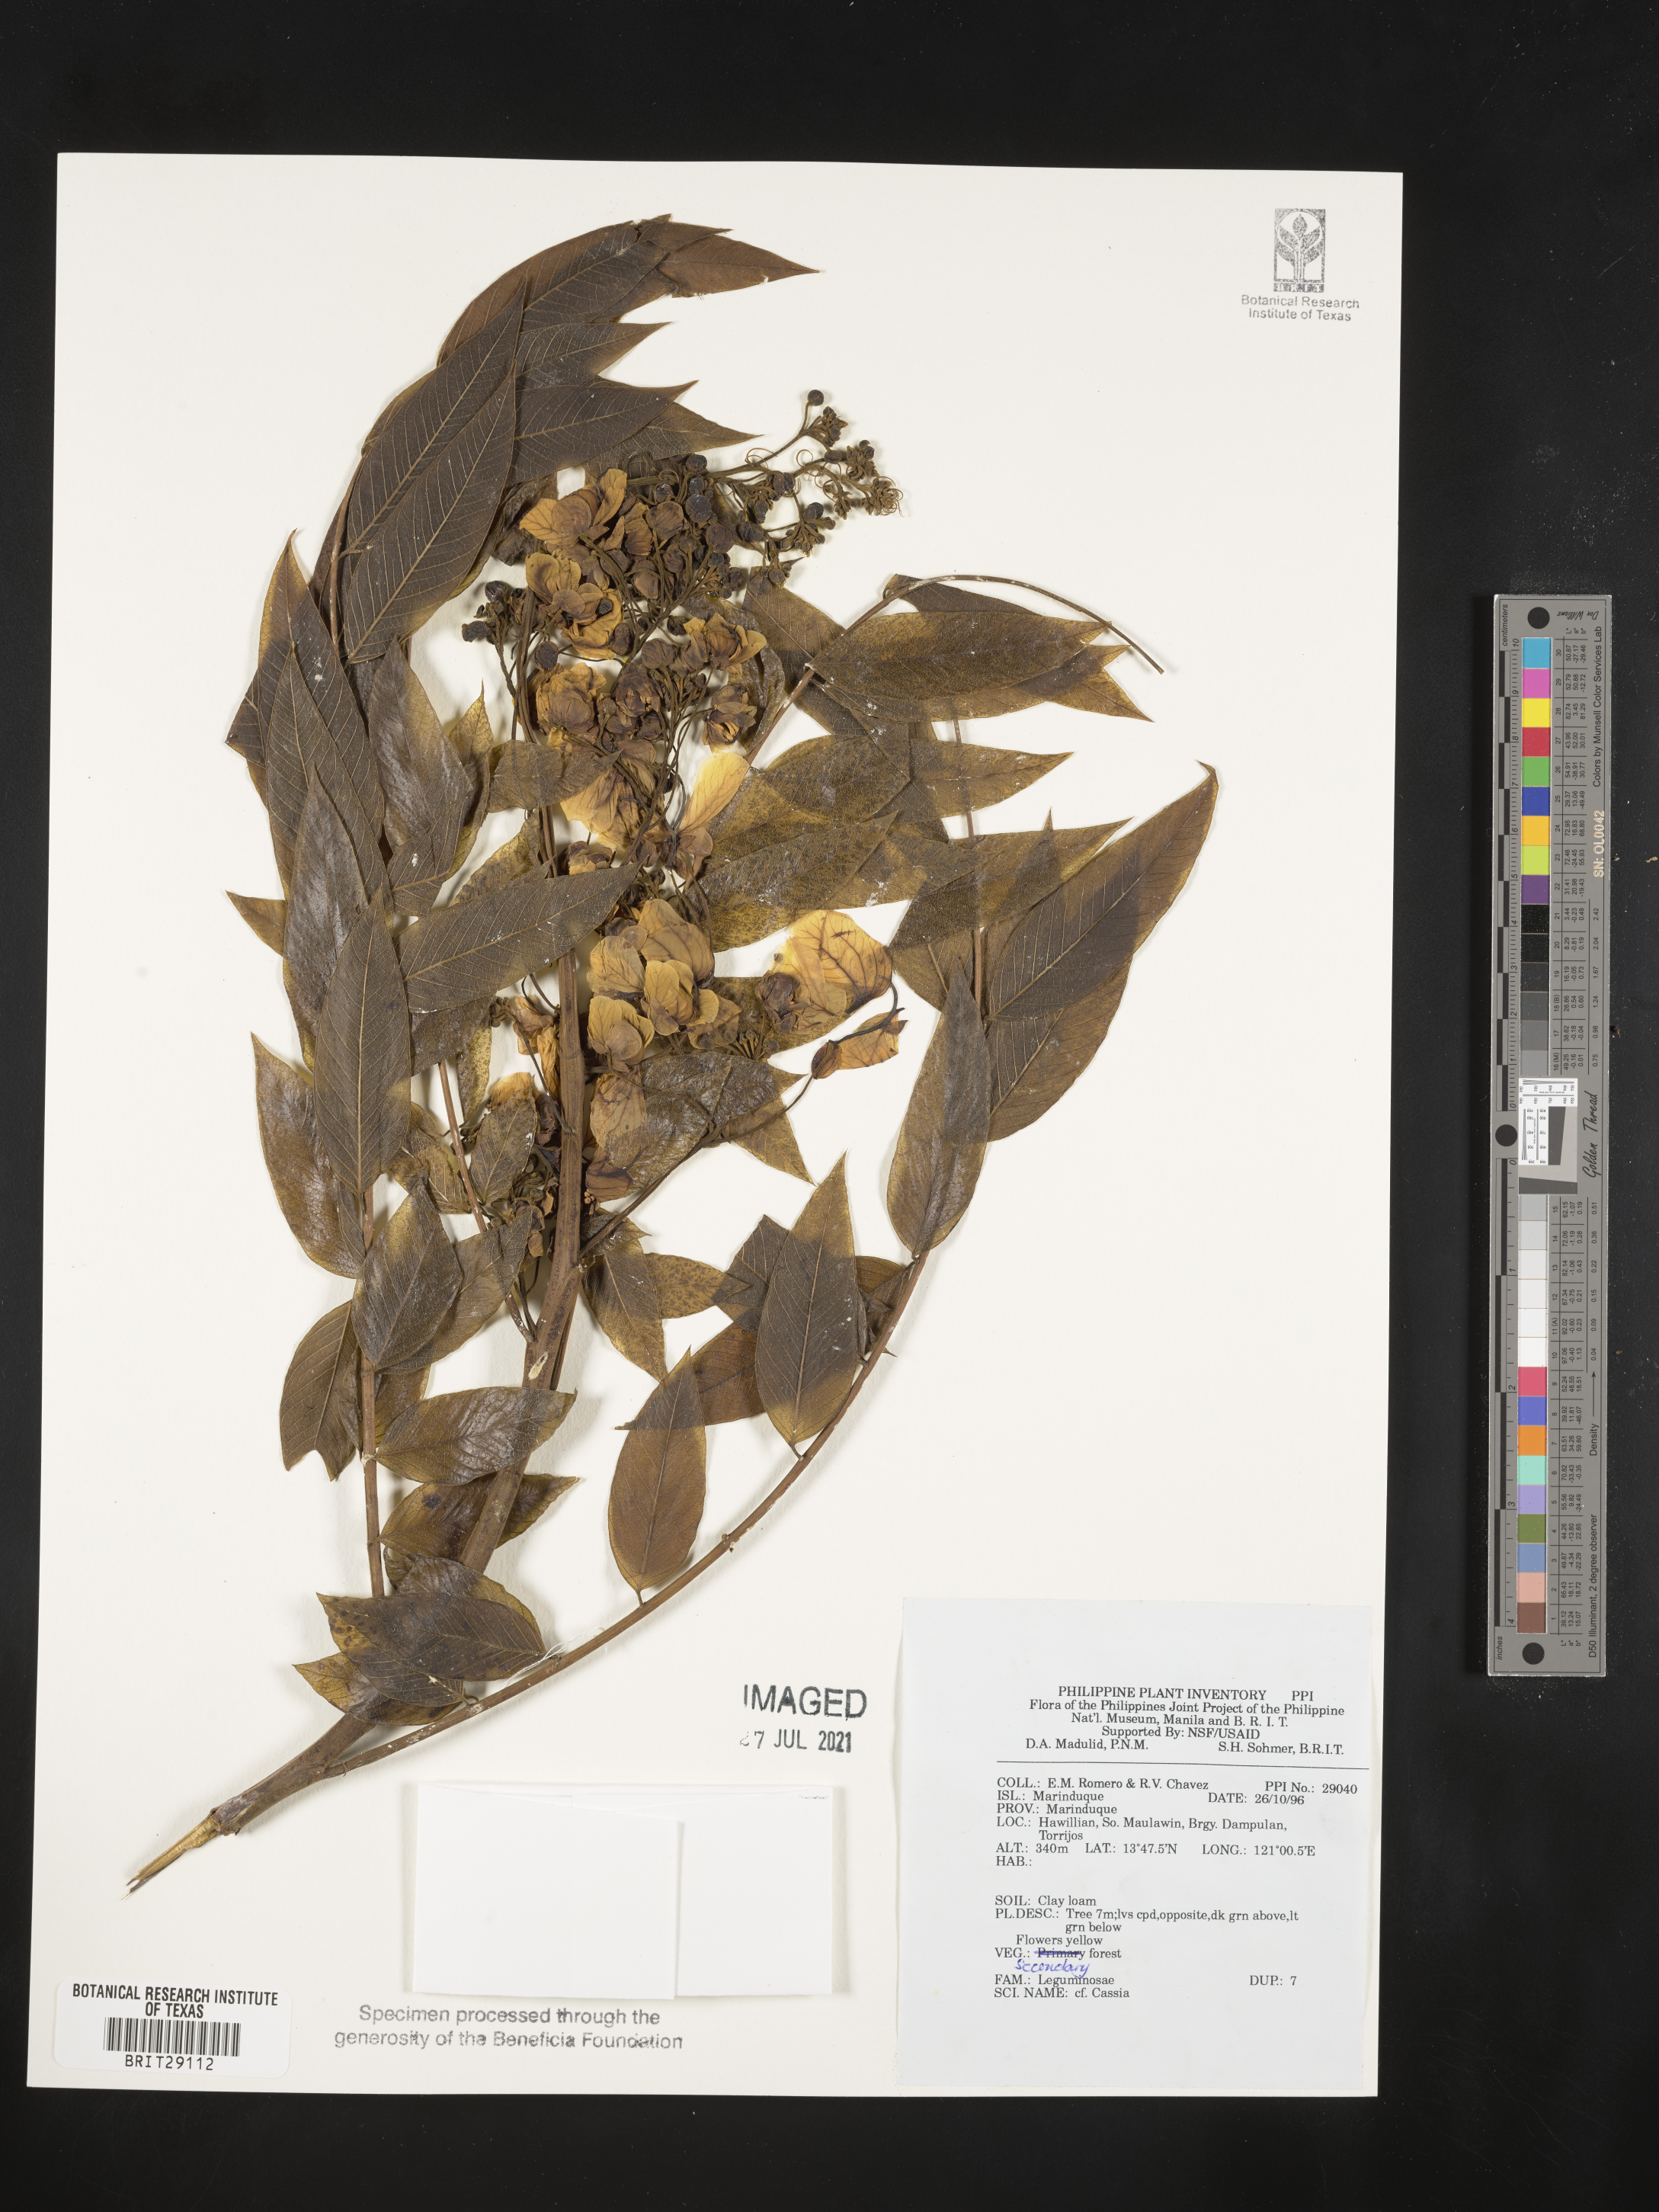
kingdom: Plantae
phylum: Tracheophyta
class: Magnoliopsida
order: Fabales
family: Fabaceae
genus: Cassia
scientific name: Cassia
